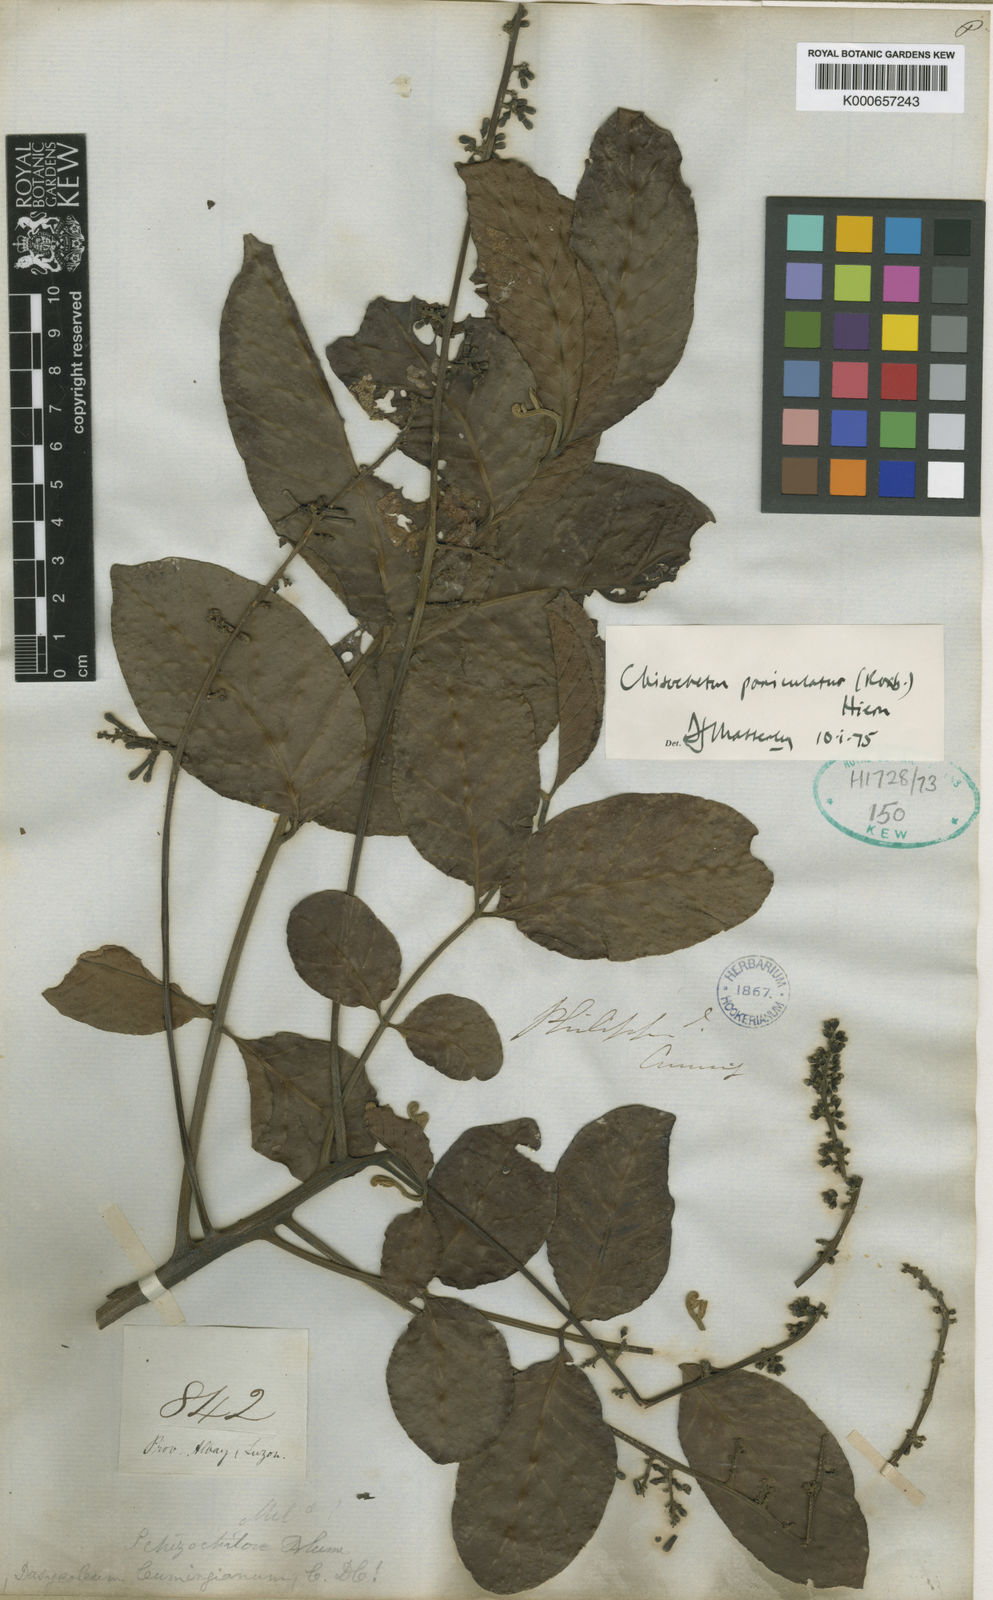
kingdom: Plantae
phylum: Tracheophyta
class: Magnoliopsida
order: Sapindales
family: Meliaceae
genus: Chisocheton
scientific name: Chisocheton cumingianus
